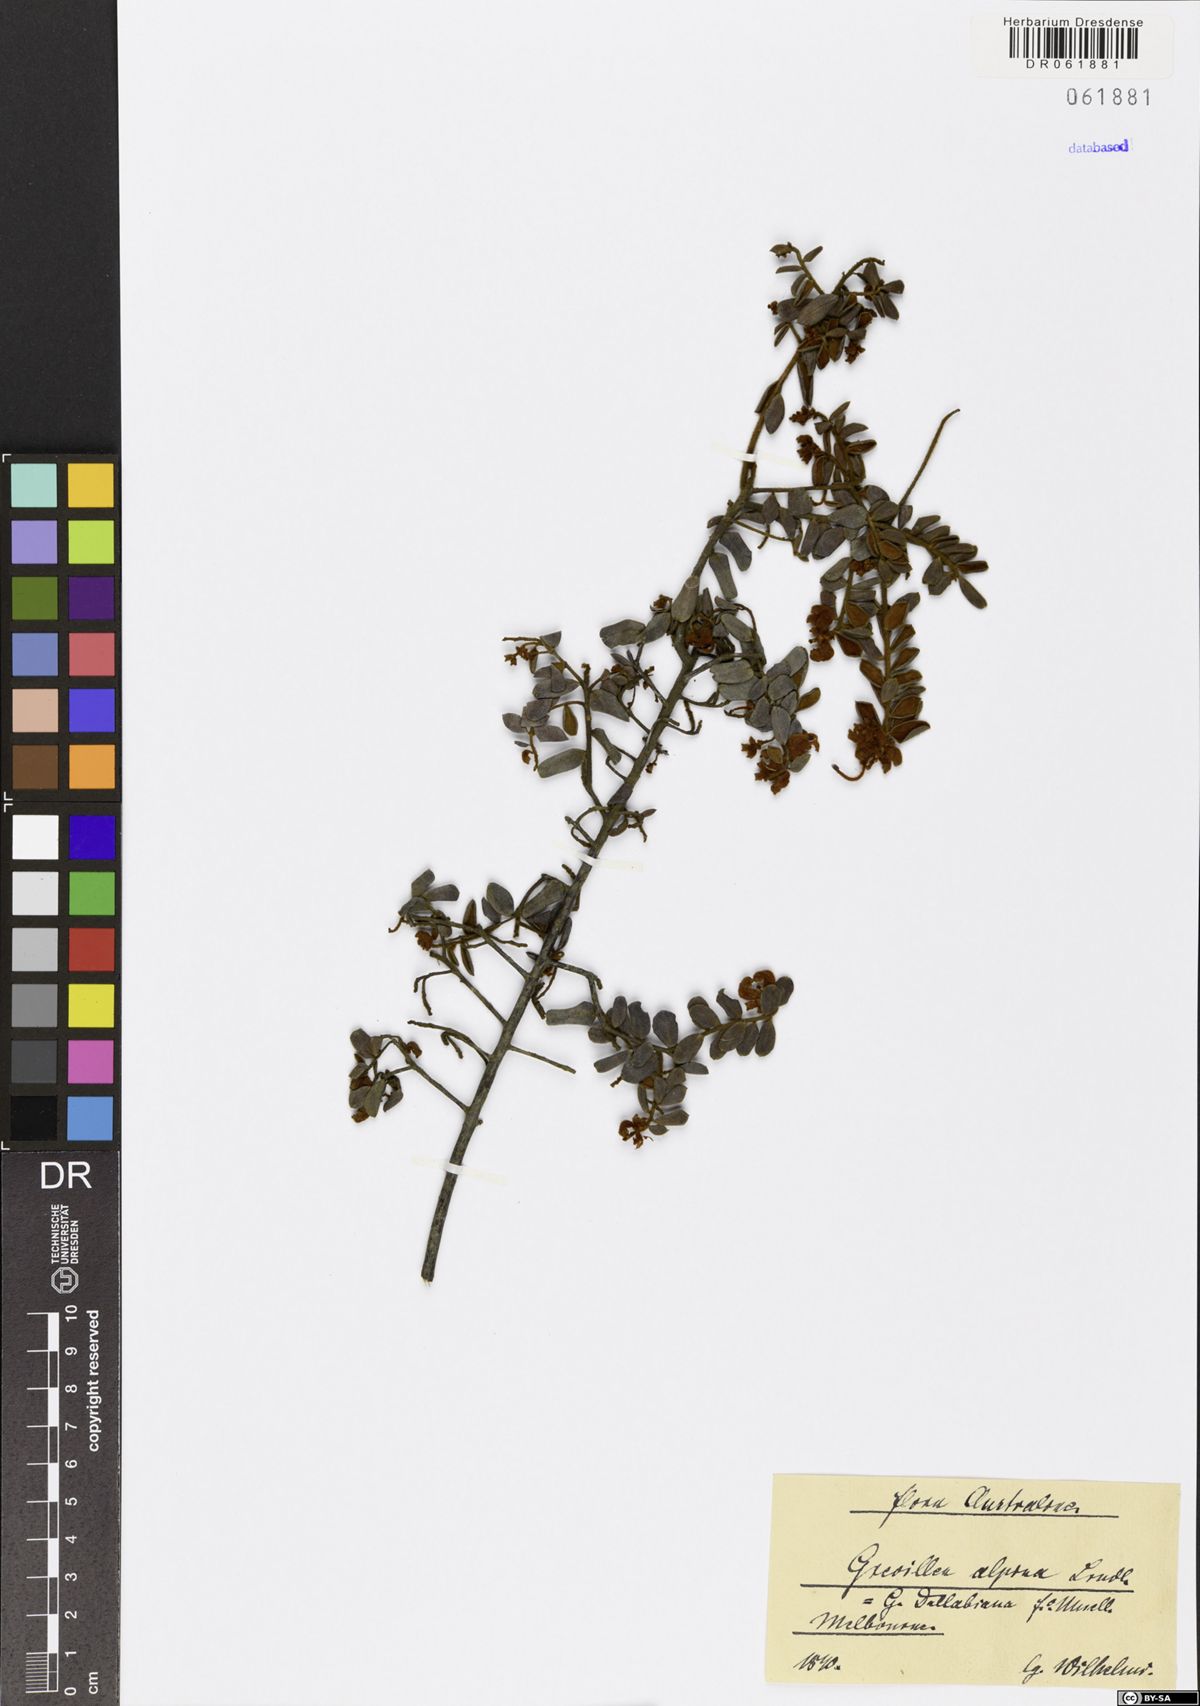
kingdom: Plantae
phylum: Tracheophyta
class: Magnoliopsida
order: Proteales
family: Proteaceae
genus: Grevillea
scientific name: Grevillea alpina
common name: Catclaws grevillea
